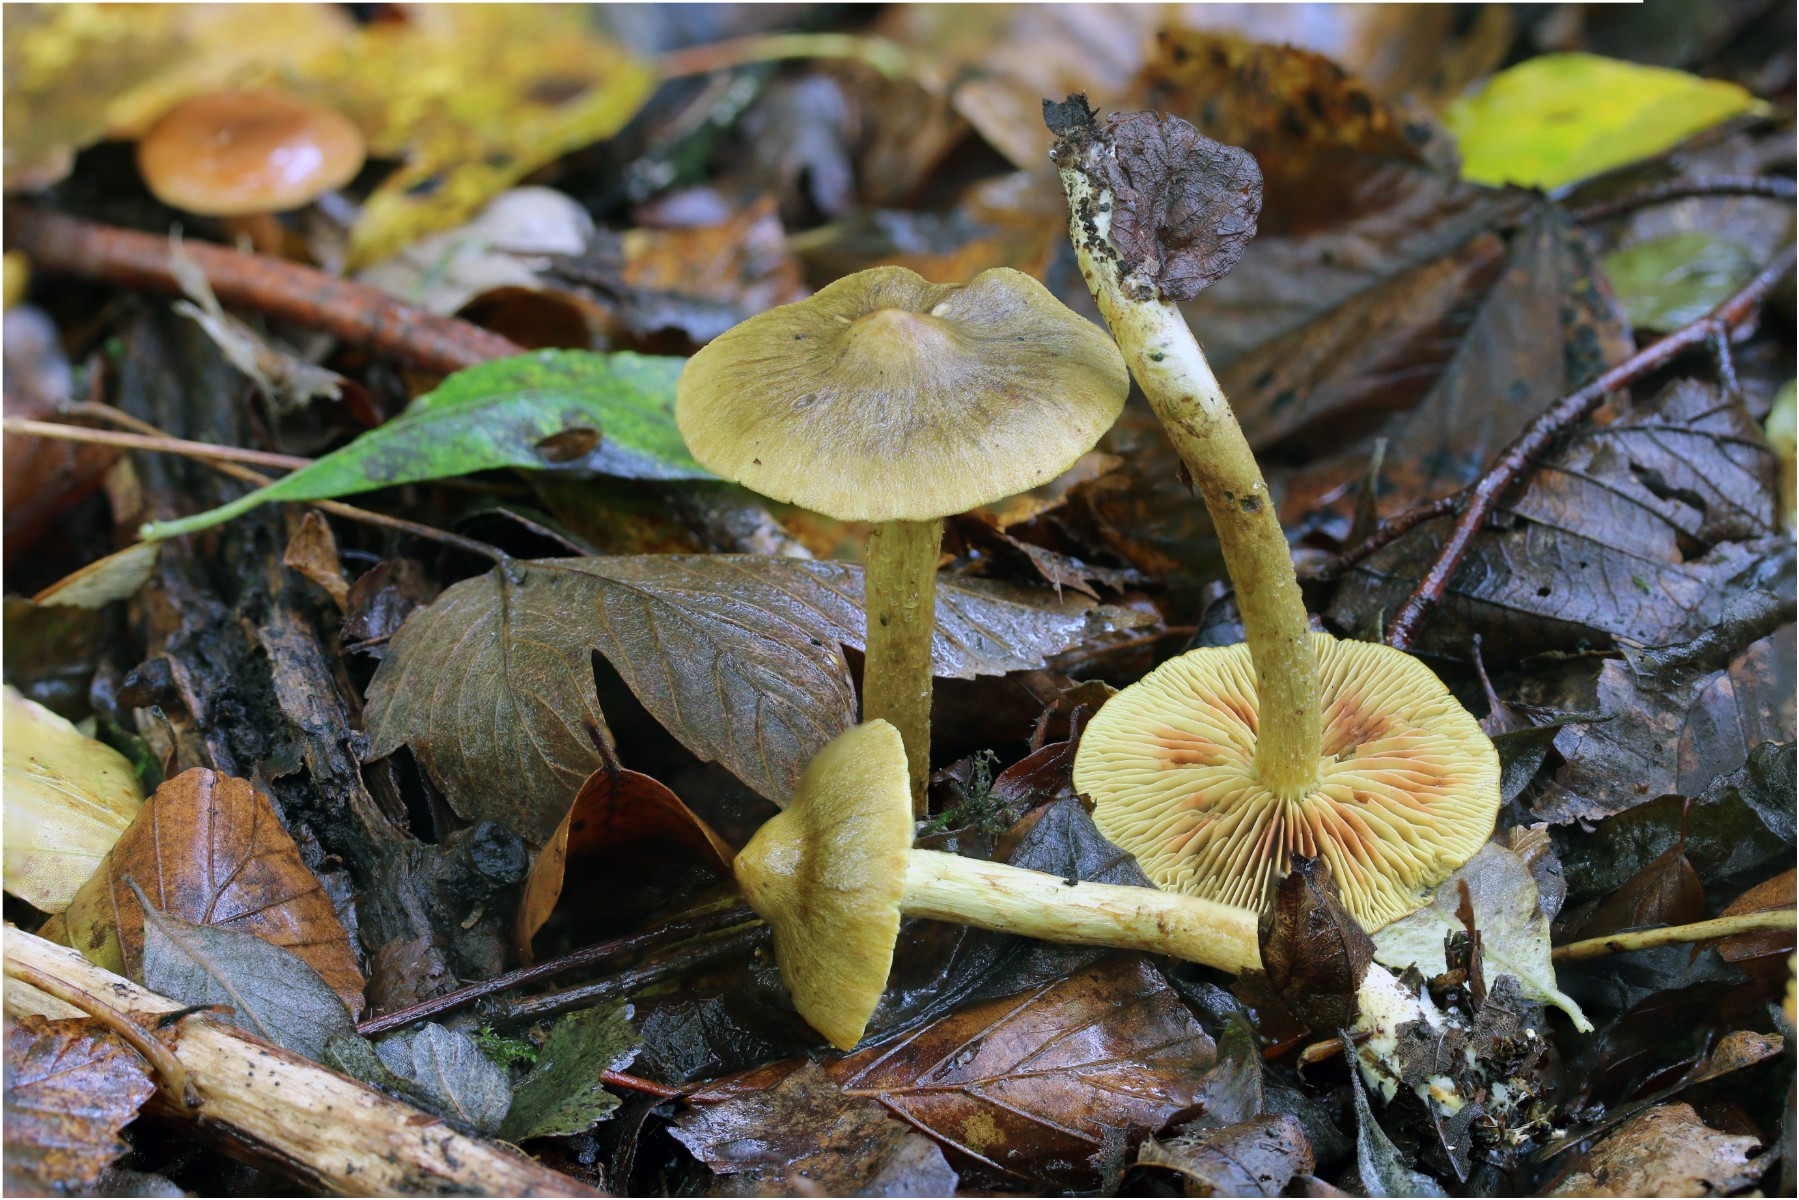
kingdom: Fungi
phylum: Basidiomycota
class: Agaricomycetes
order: Agaricales
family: Cortinariaceae
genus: Cortinarius
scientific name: Cortinarius
